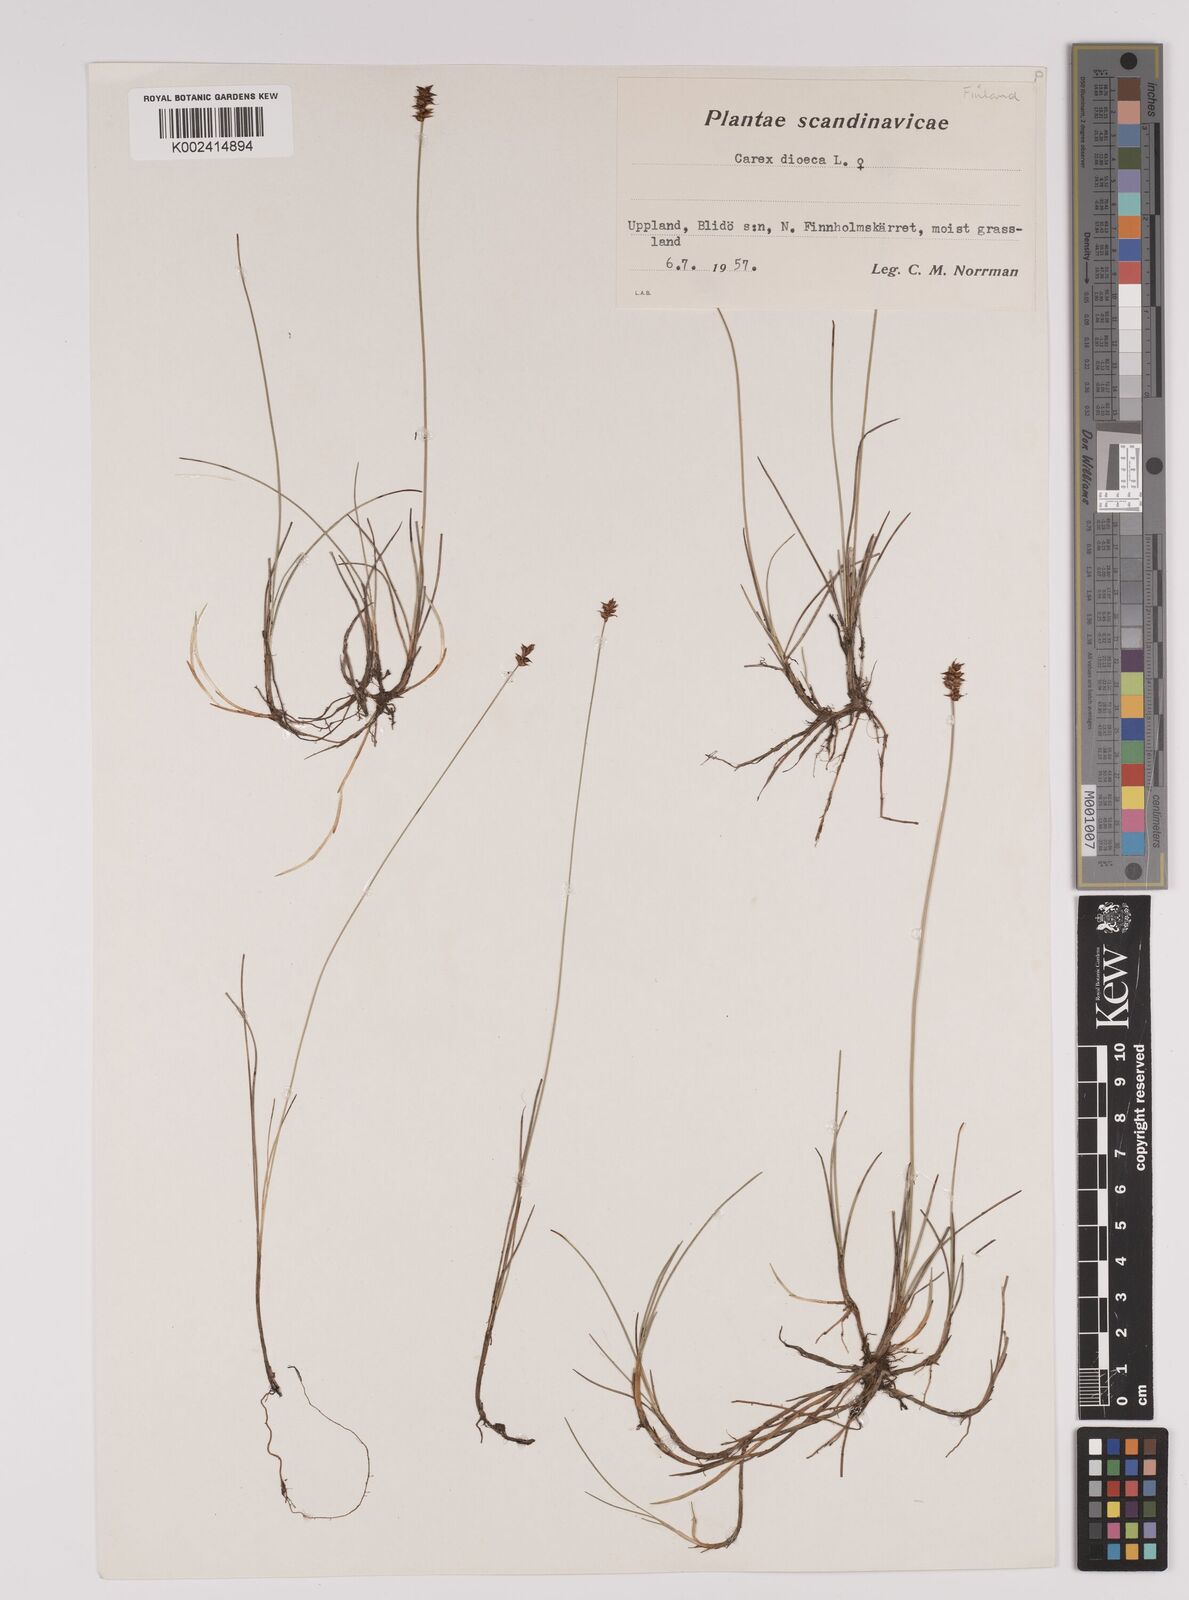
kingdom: Plantae
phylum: Tracheophyta
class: Liliopsida
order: Poales
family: Cyperaceae
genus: Carex
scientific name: Carex dioica
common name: Dioecious sedge
